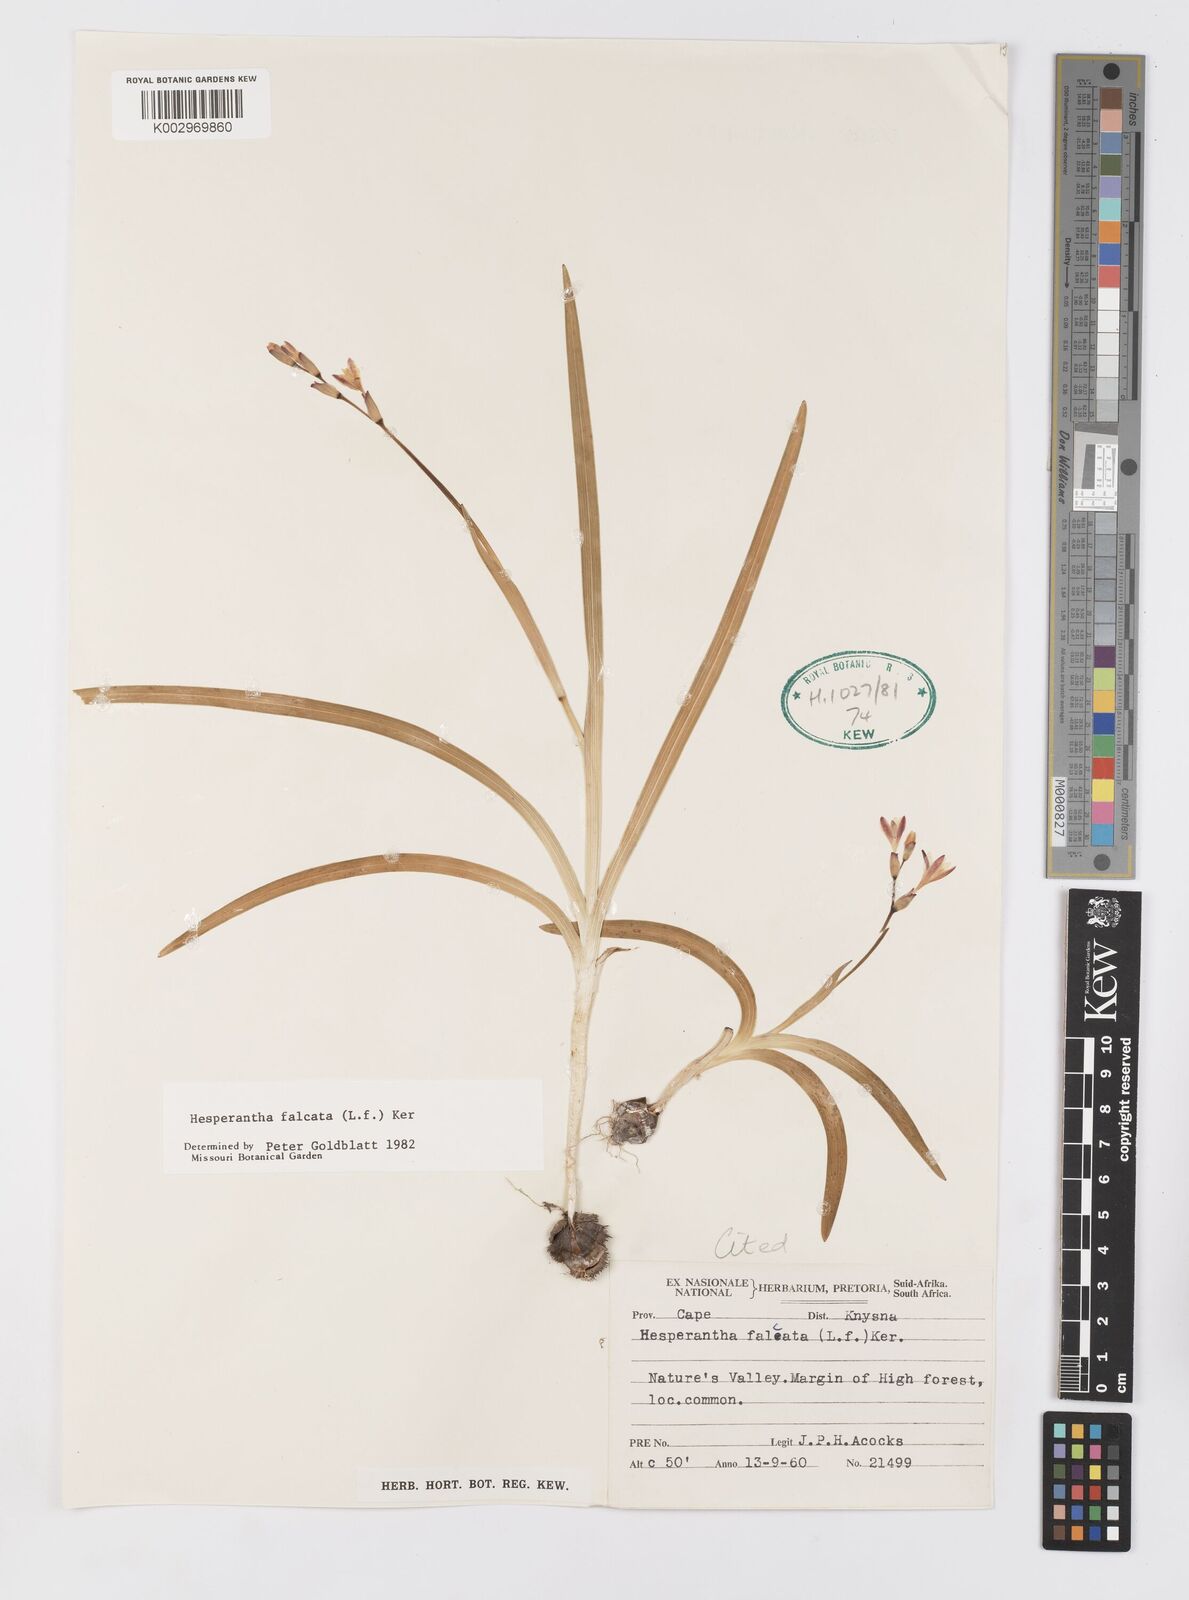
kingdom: Plantae
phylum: Tracheophyta
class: Liliopsida
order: Asparagales
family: Iridaceae
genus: Hesperantha
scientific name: Hesperantha falcata
